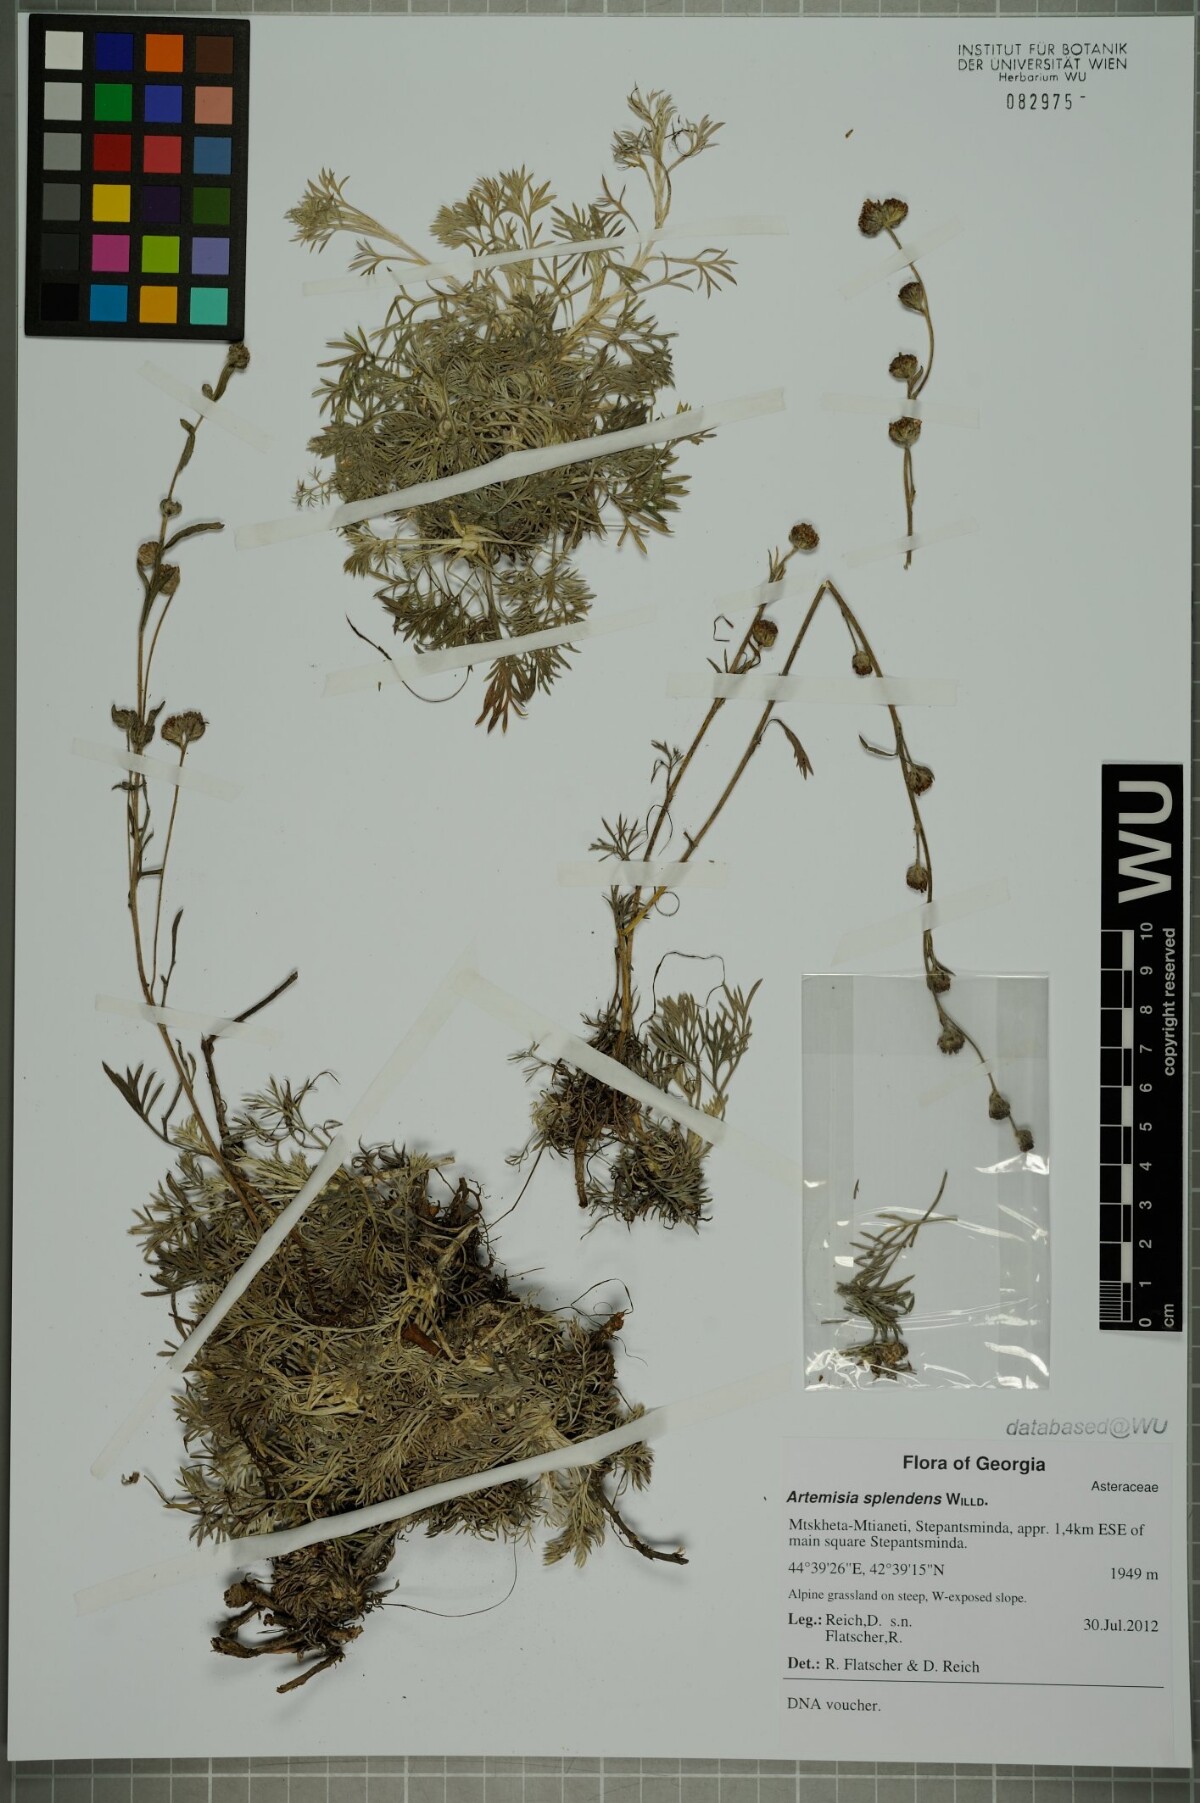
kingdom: Plantae
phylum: Tracheophyta
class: Magnoliopsida
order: Asterales
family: Asteraceae
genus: Artemisia
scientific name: Artemisia splendens
